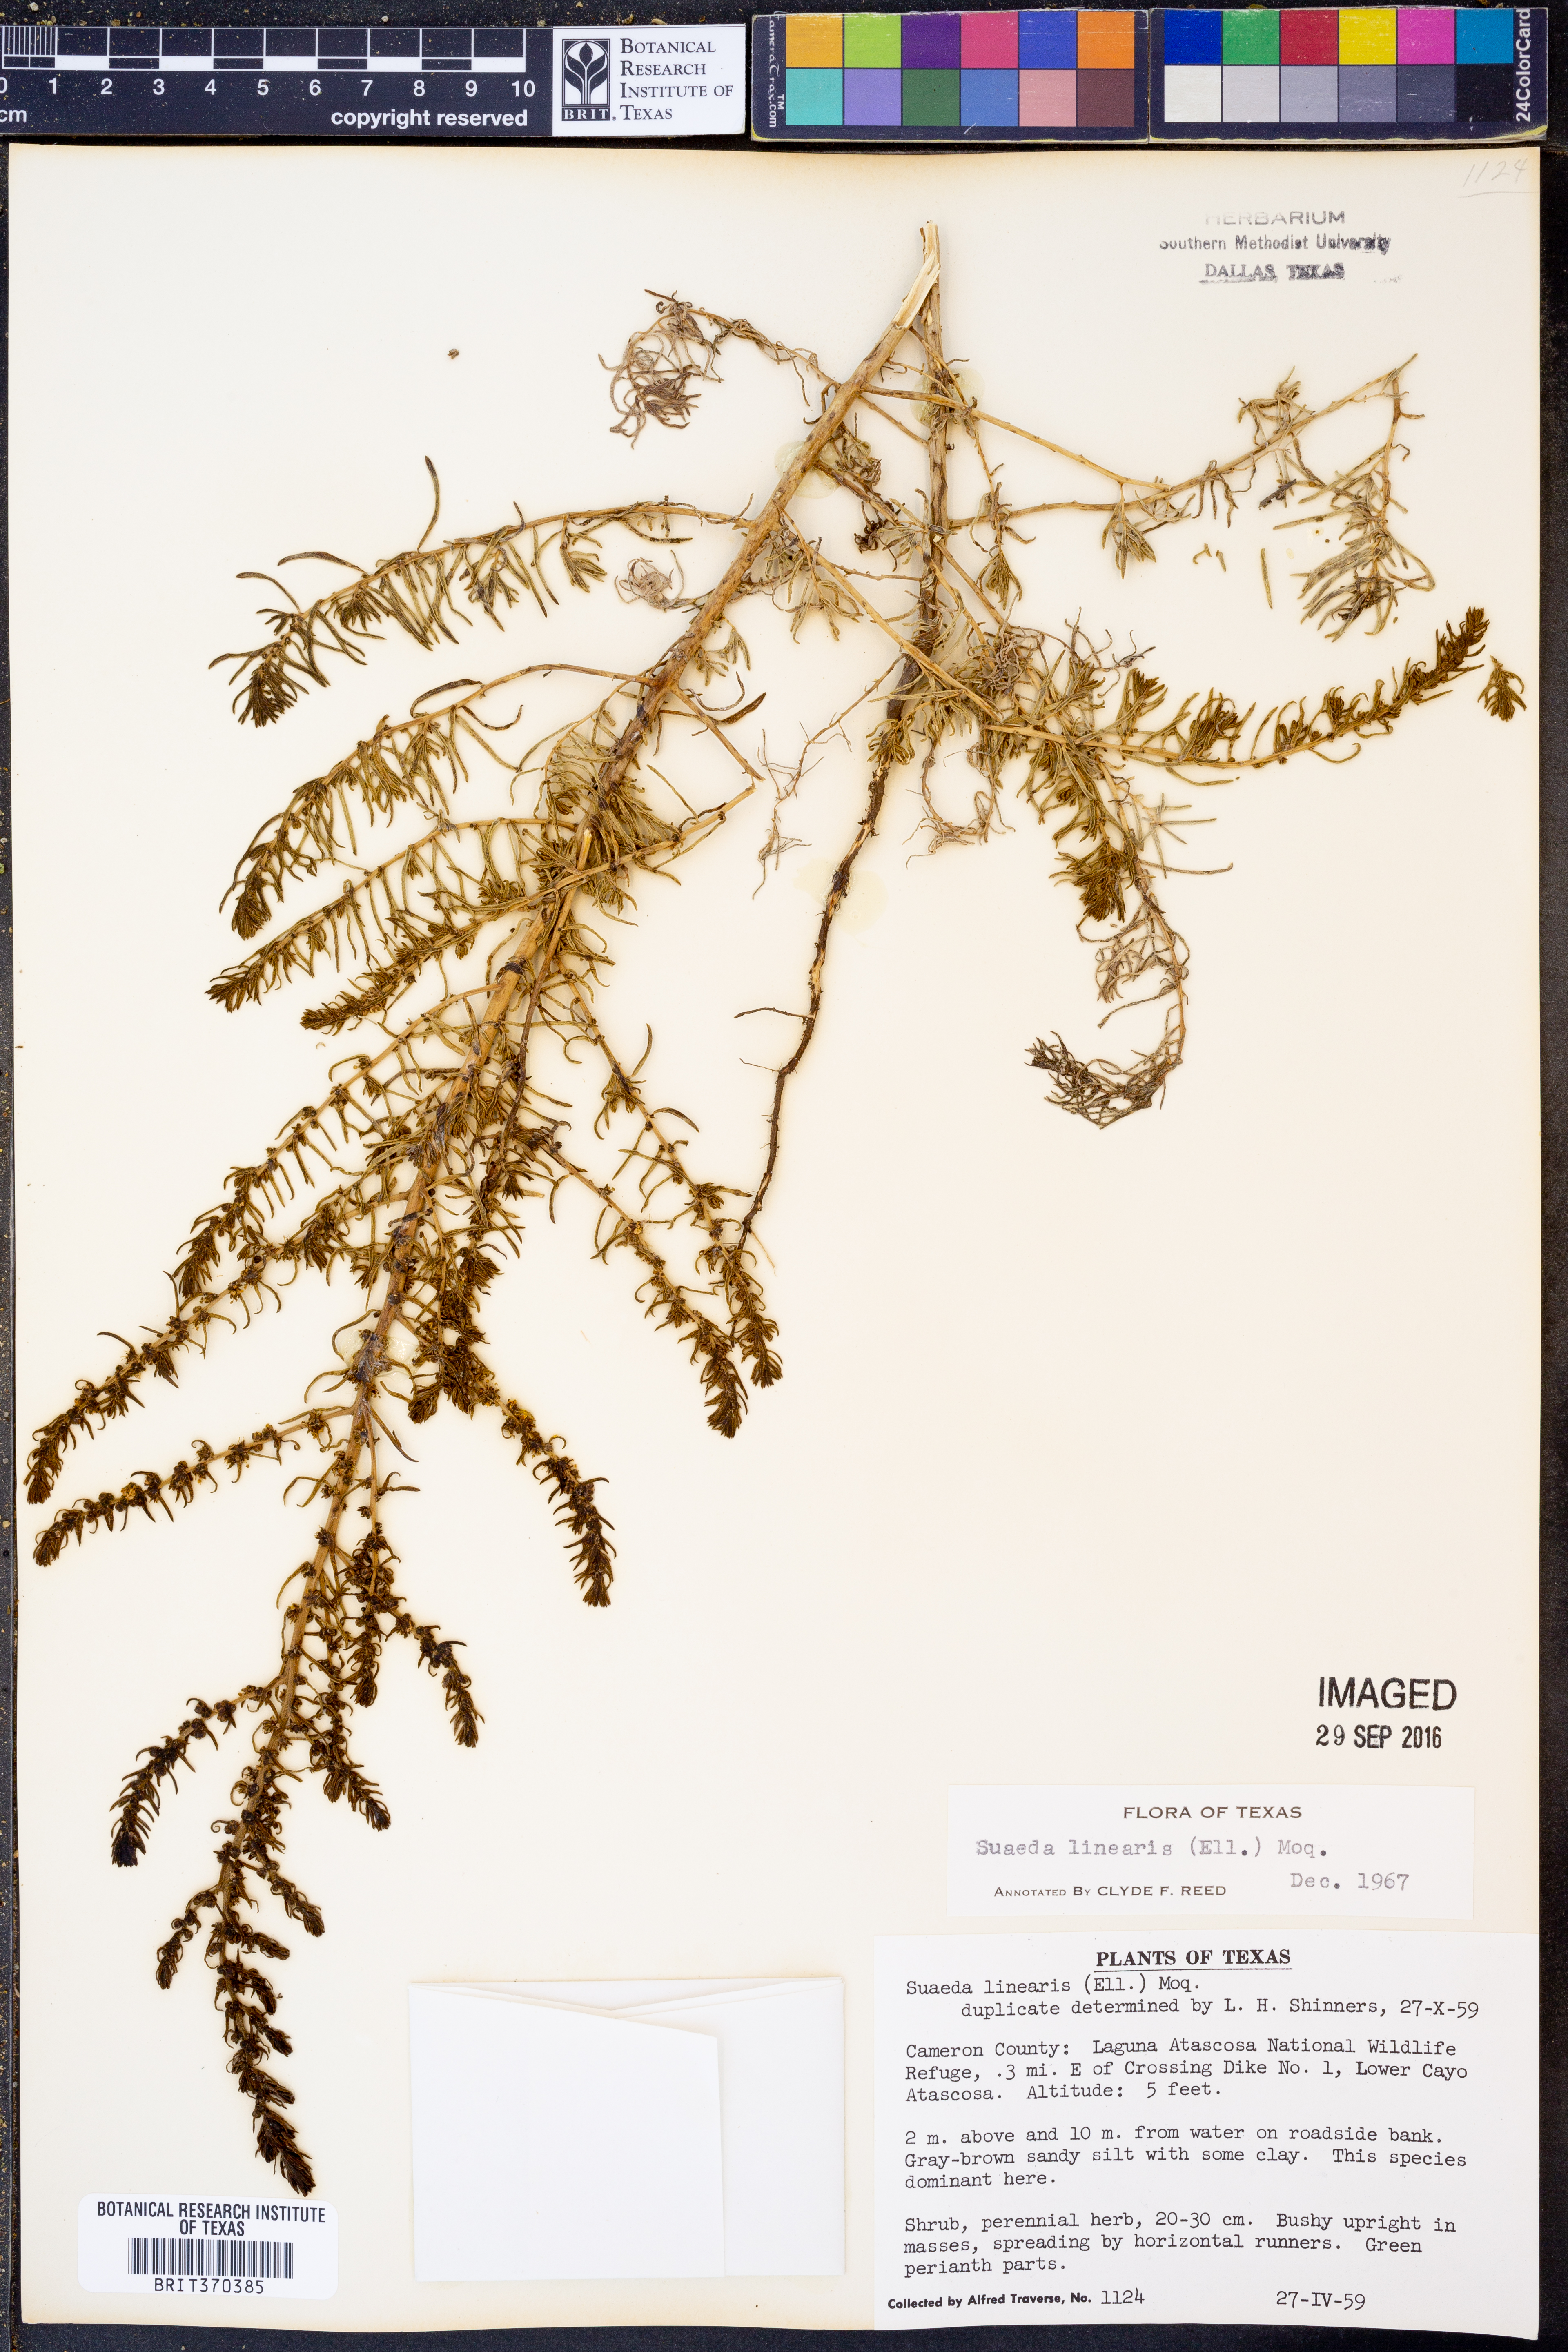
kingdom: Plantae
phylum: Tracheophyta
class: Magnoliopsida
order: Caryophyllales
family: Amaranthaceae
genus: Suaeda
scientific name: Suaeda linearis
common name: Annual seepweed
